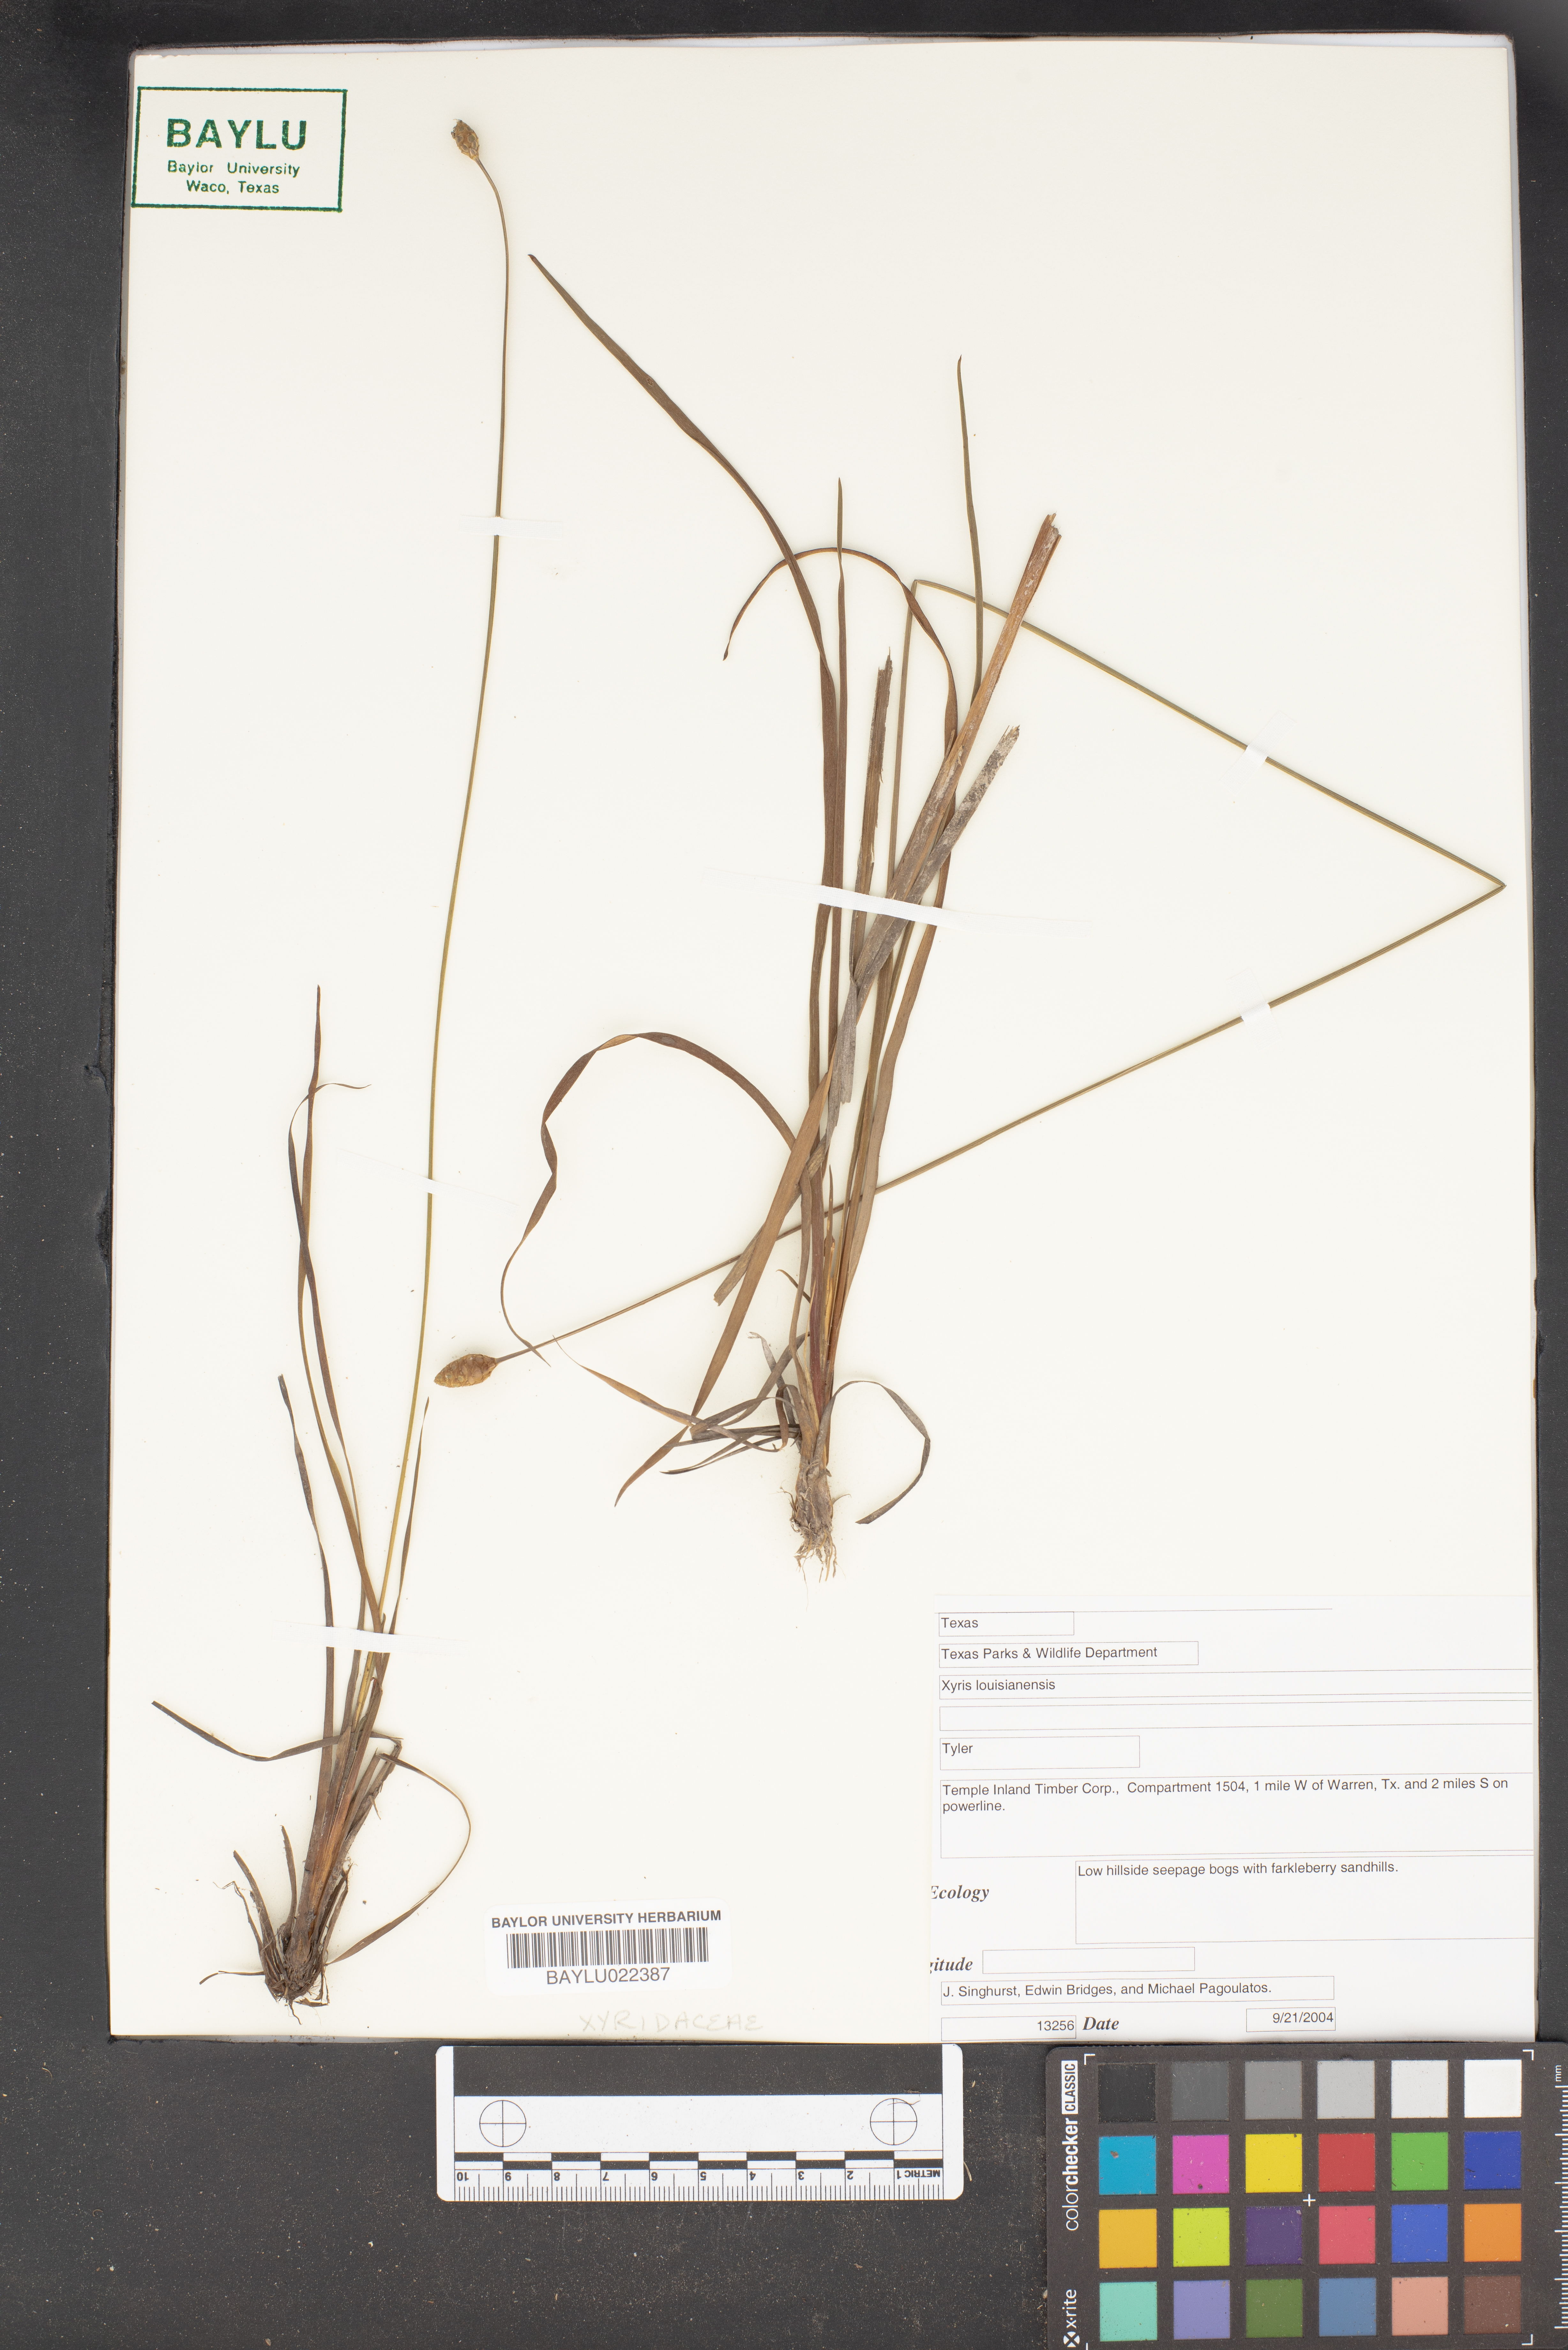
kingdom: Plantae
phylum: Tracheophyta
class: Liliopsida
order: Poales
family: Xyridaceae
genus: Xyris
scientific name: Xyris stricta
